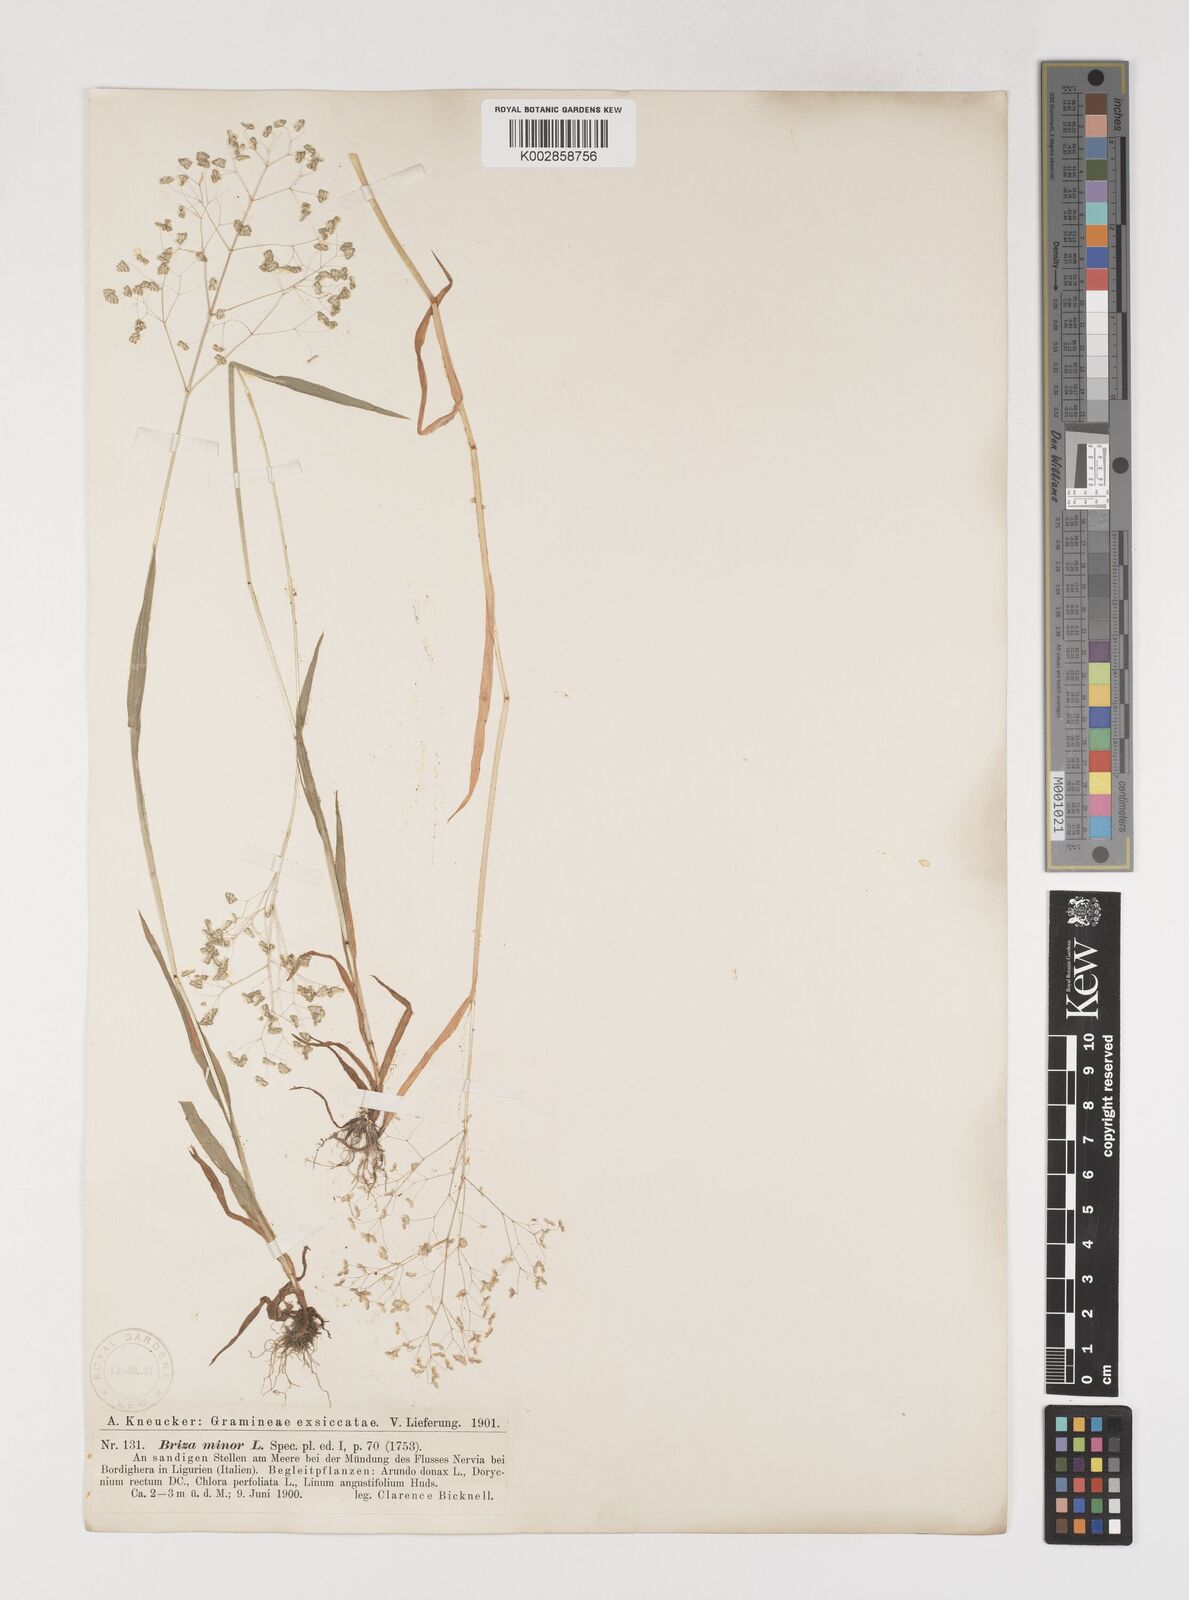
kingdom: Plantae
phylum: Tracheophyta
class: Liliopsida
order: Poales
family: Poaceae
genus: Briza
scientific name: Briza minor
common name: Lesser quaking-grass
